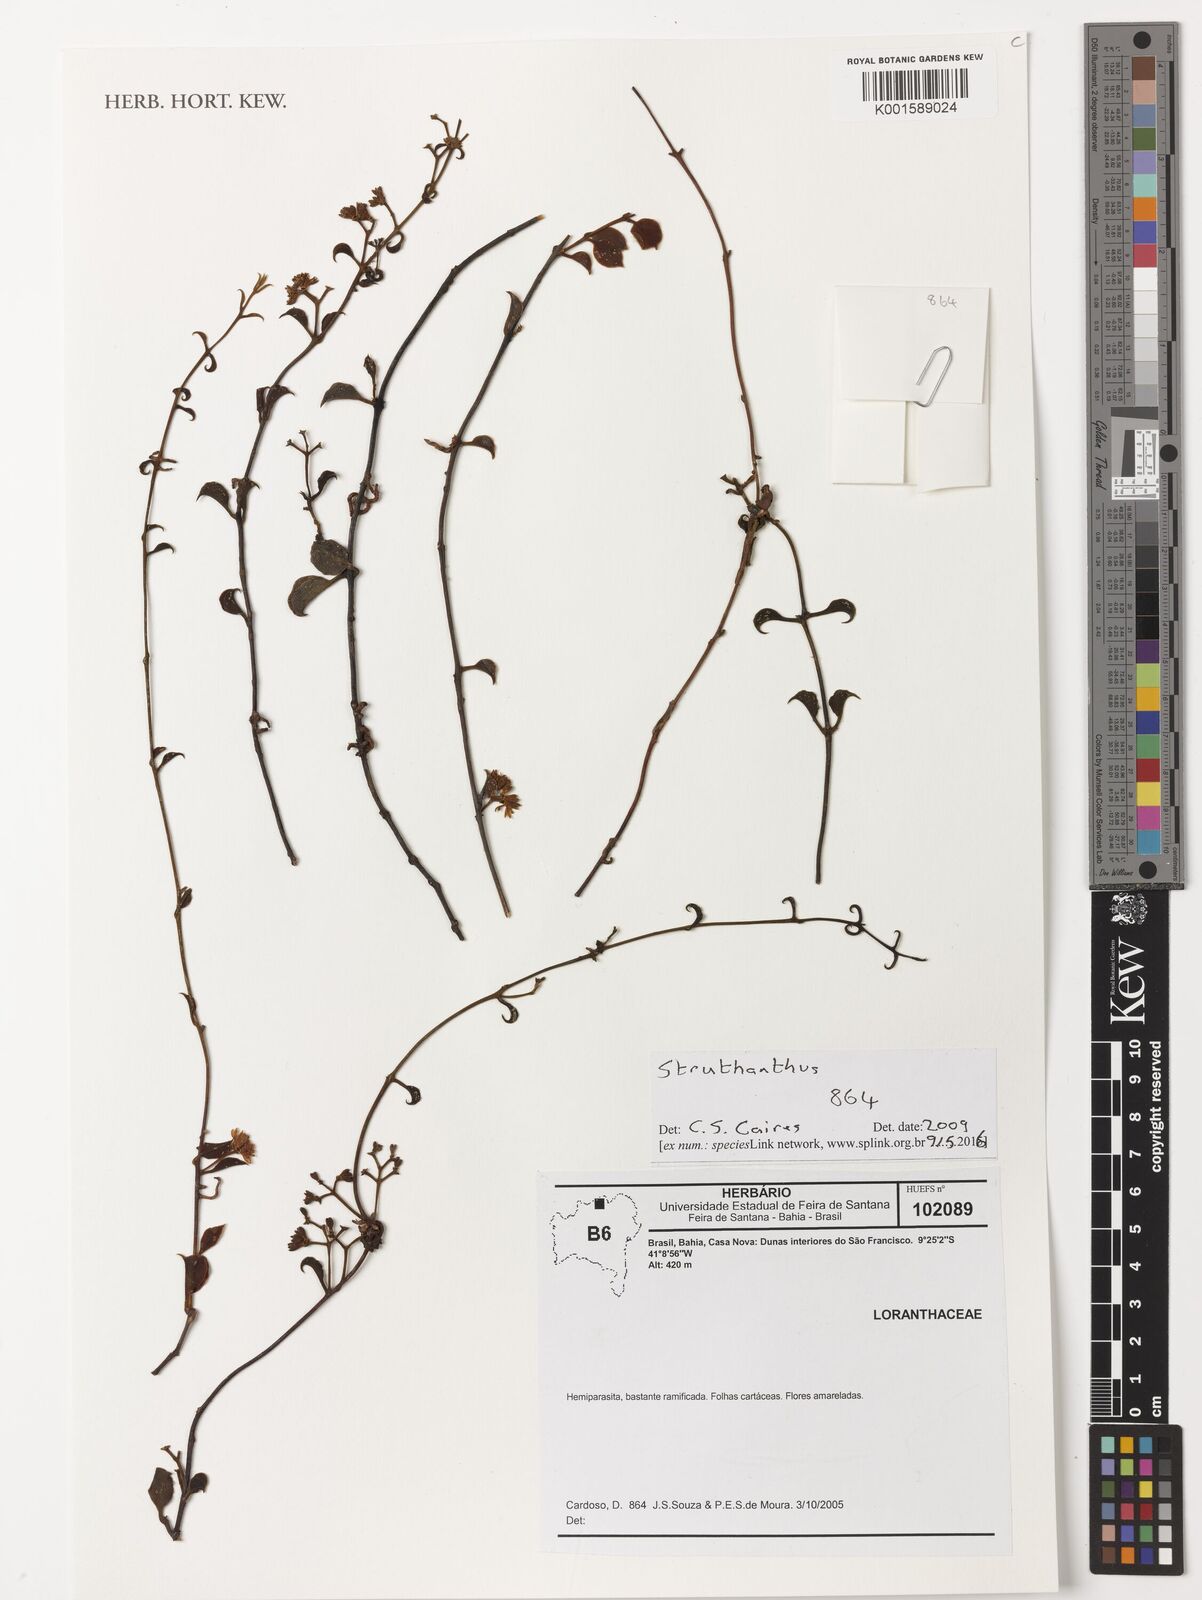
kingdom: Plantae
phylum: Tracheophyta
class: Magnoliopsida
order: Santalales
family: Loranthaceae
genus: Struthanthus
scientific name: Struthanthus
